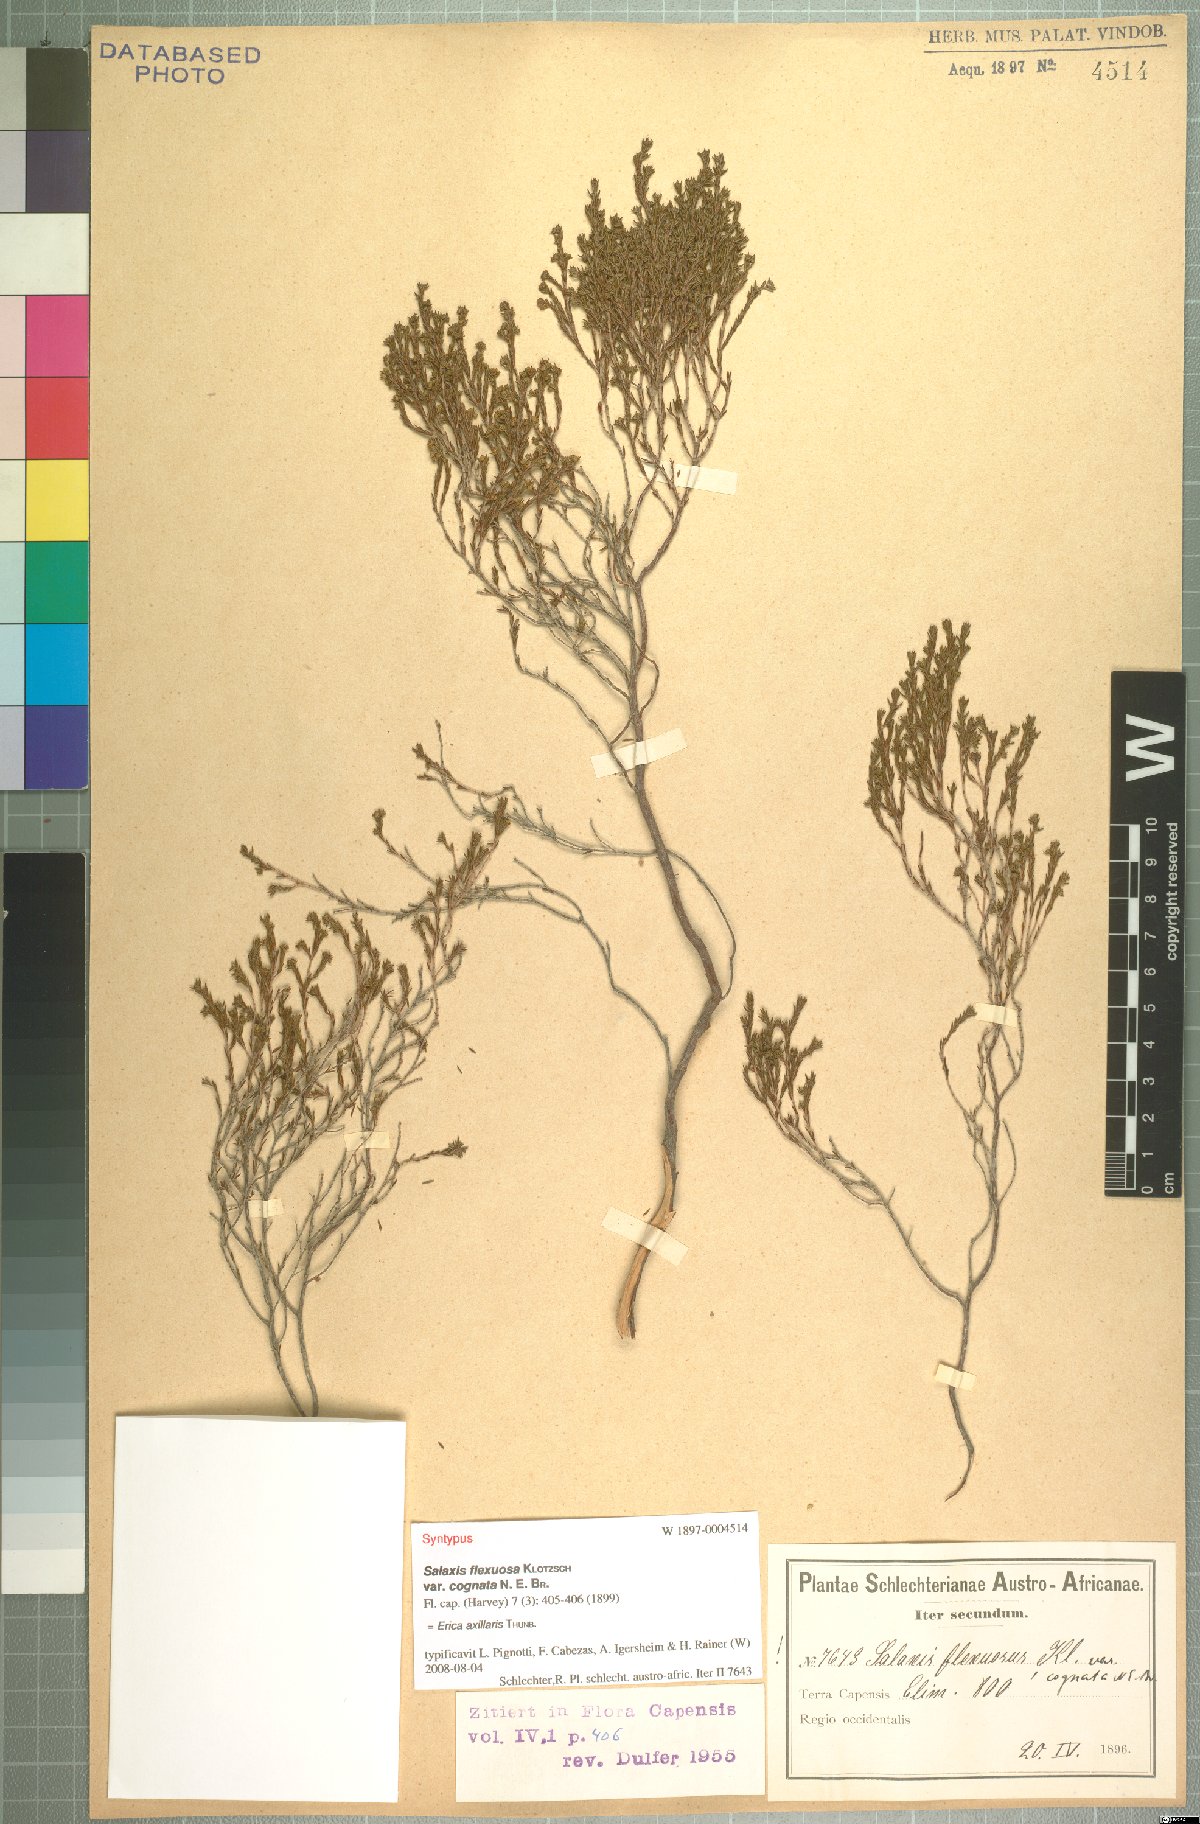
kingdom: Plantae
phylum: Tracheophyta
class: Magnoliopsida
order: Ericales
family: Ericaceae
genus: Erica
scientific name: Erica axillaris
